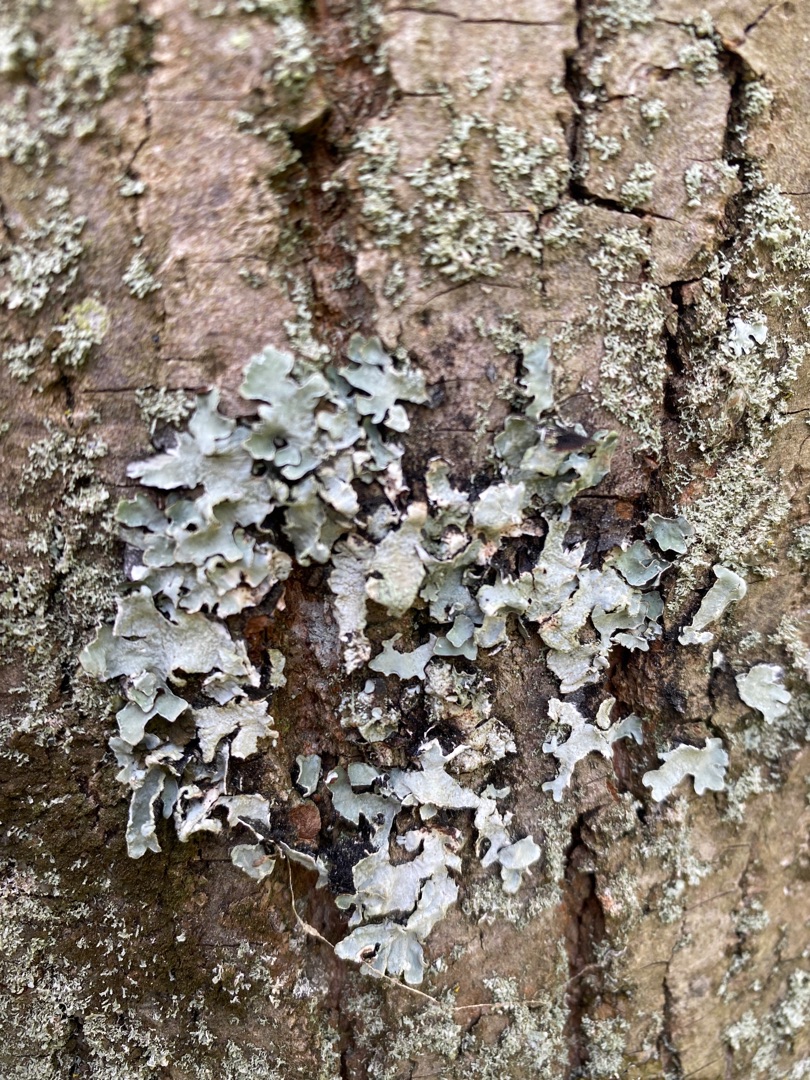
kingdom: Fungi
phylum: Ascomycota
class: Lecanoromycetes
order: Lecanorales
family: Parmeliaceae
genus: Parmelia
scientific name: Parmelia sulcata
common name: Rynket skållav
